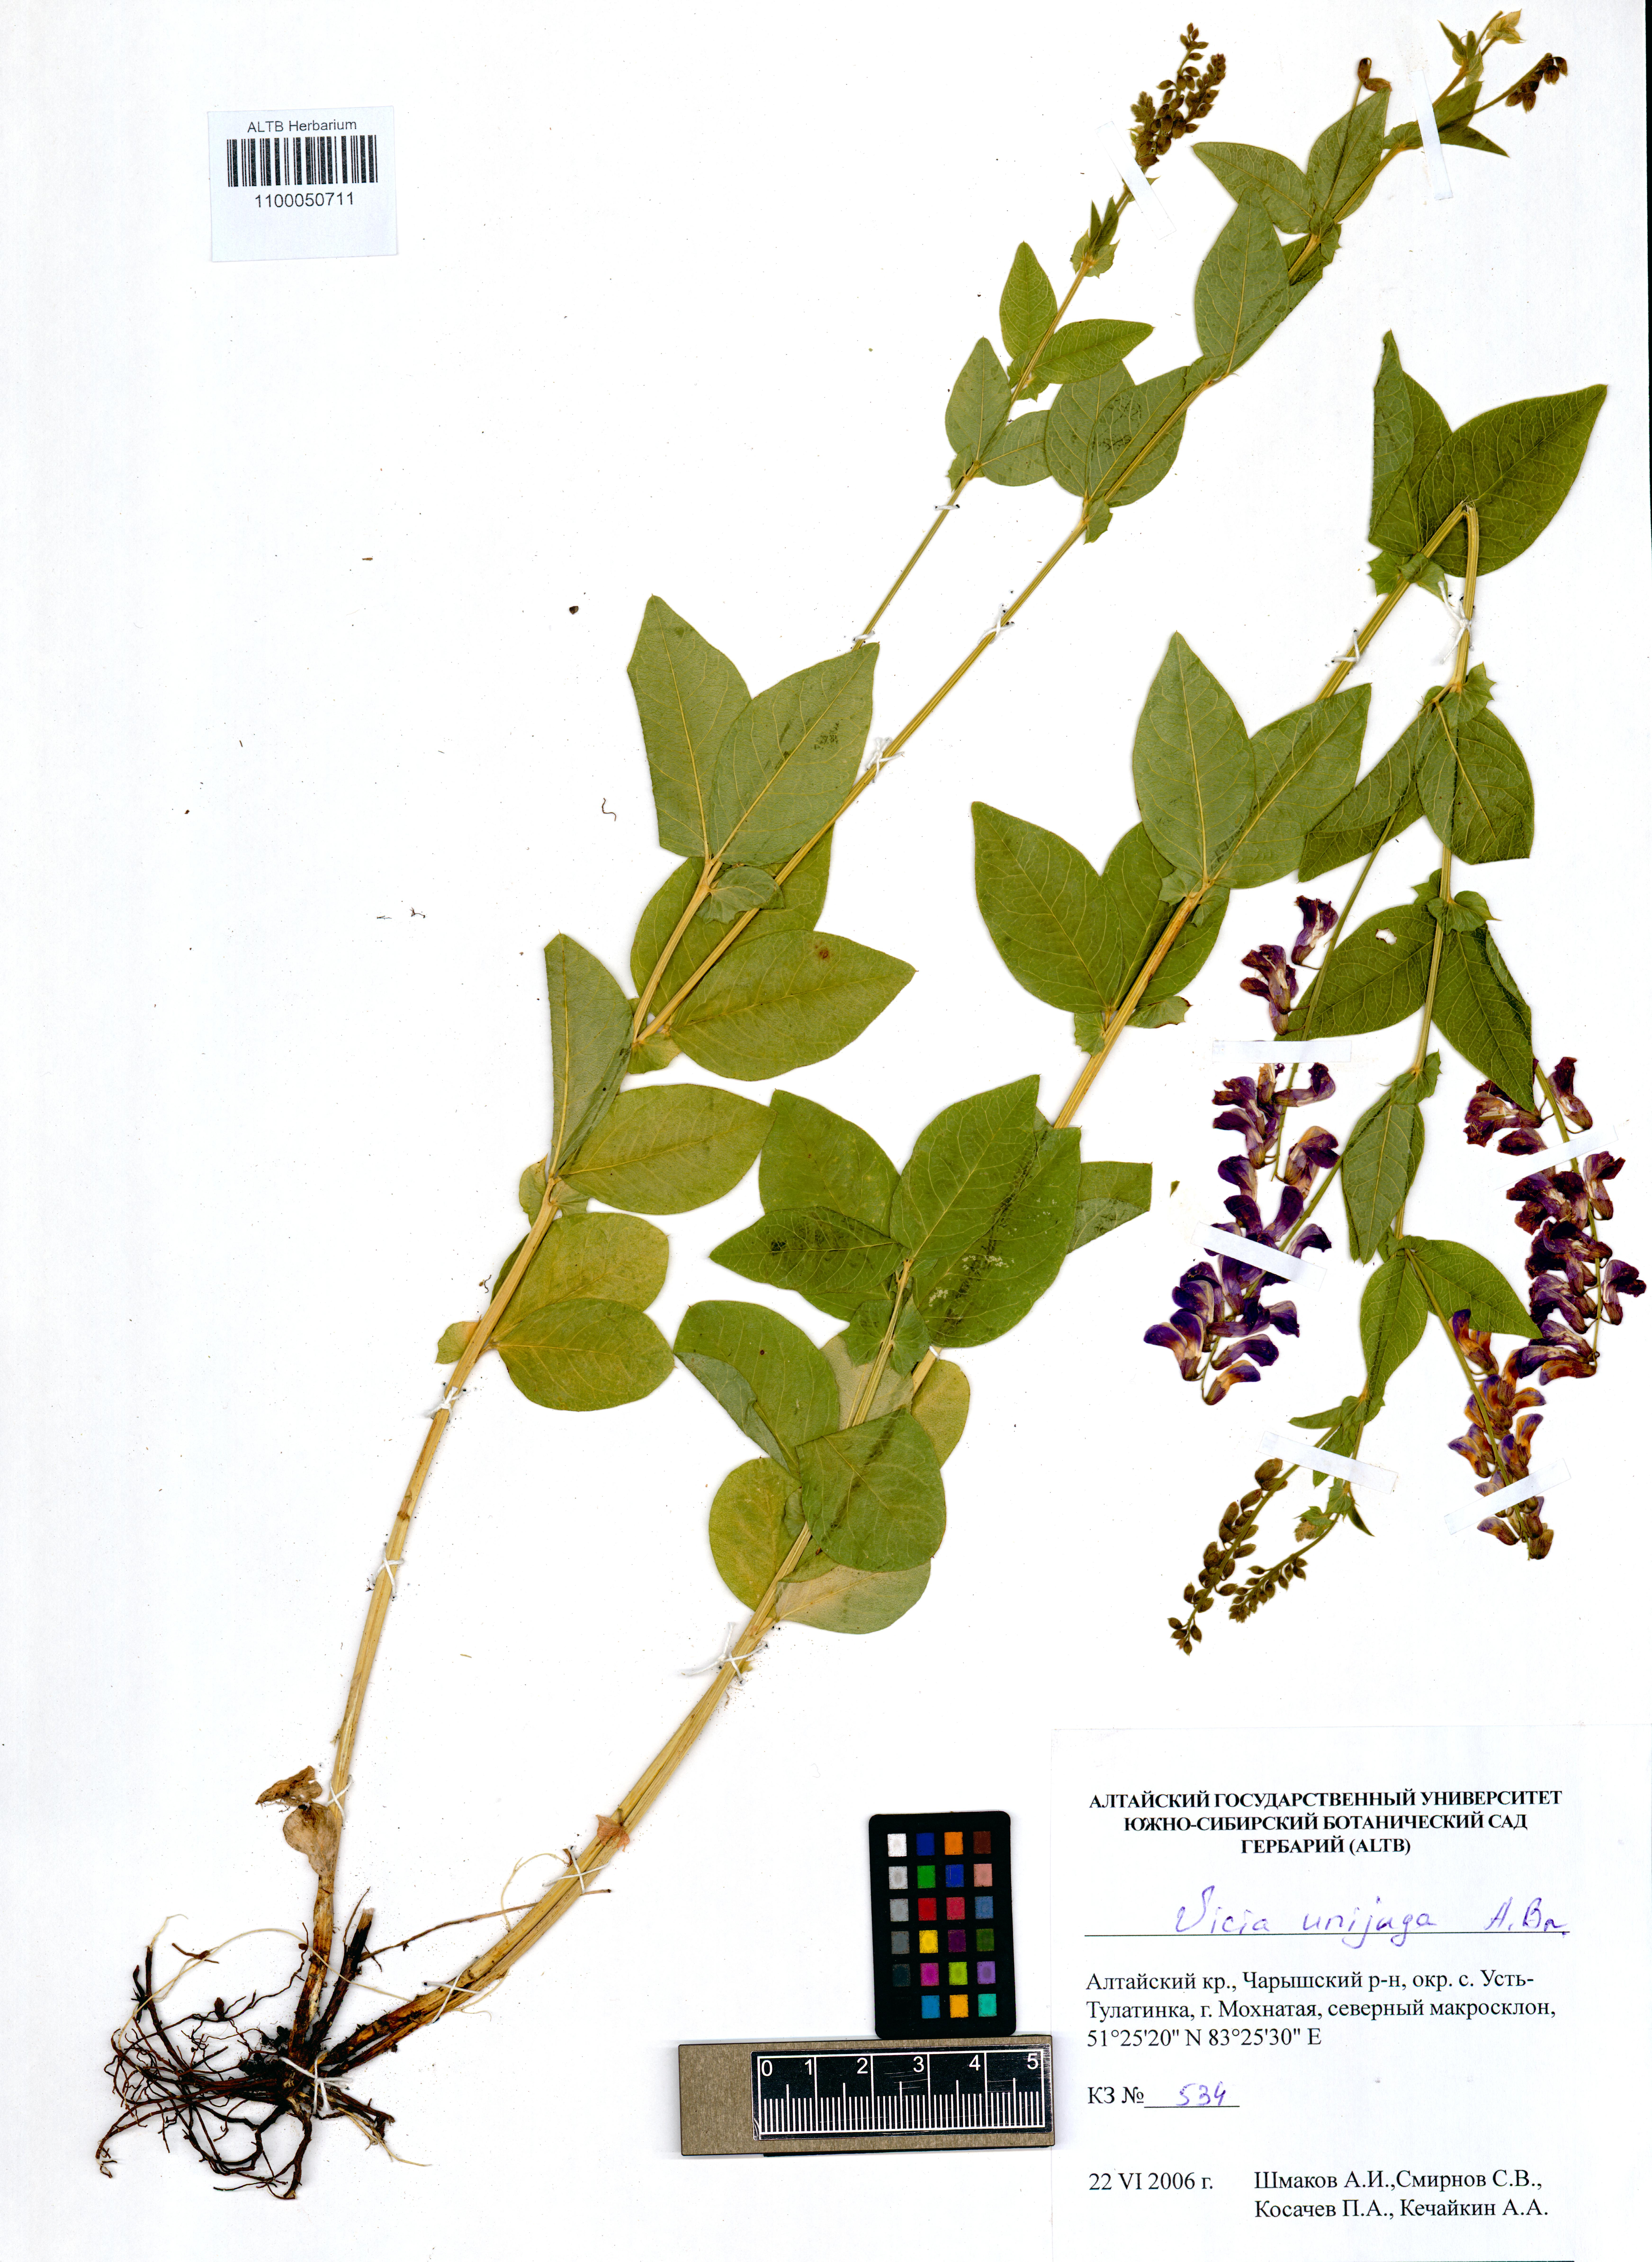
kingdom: Plantae
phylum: Tracheophyta
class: Magnoliopsida
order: Fabales
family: Fabaceae
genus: Vicia
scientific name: Vicia unijuga
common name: Two-leaf vetch
